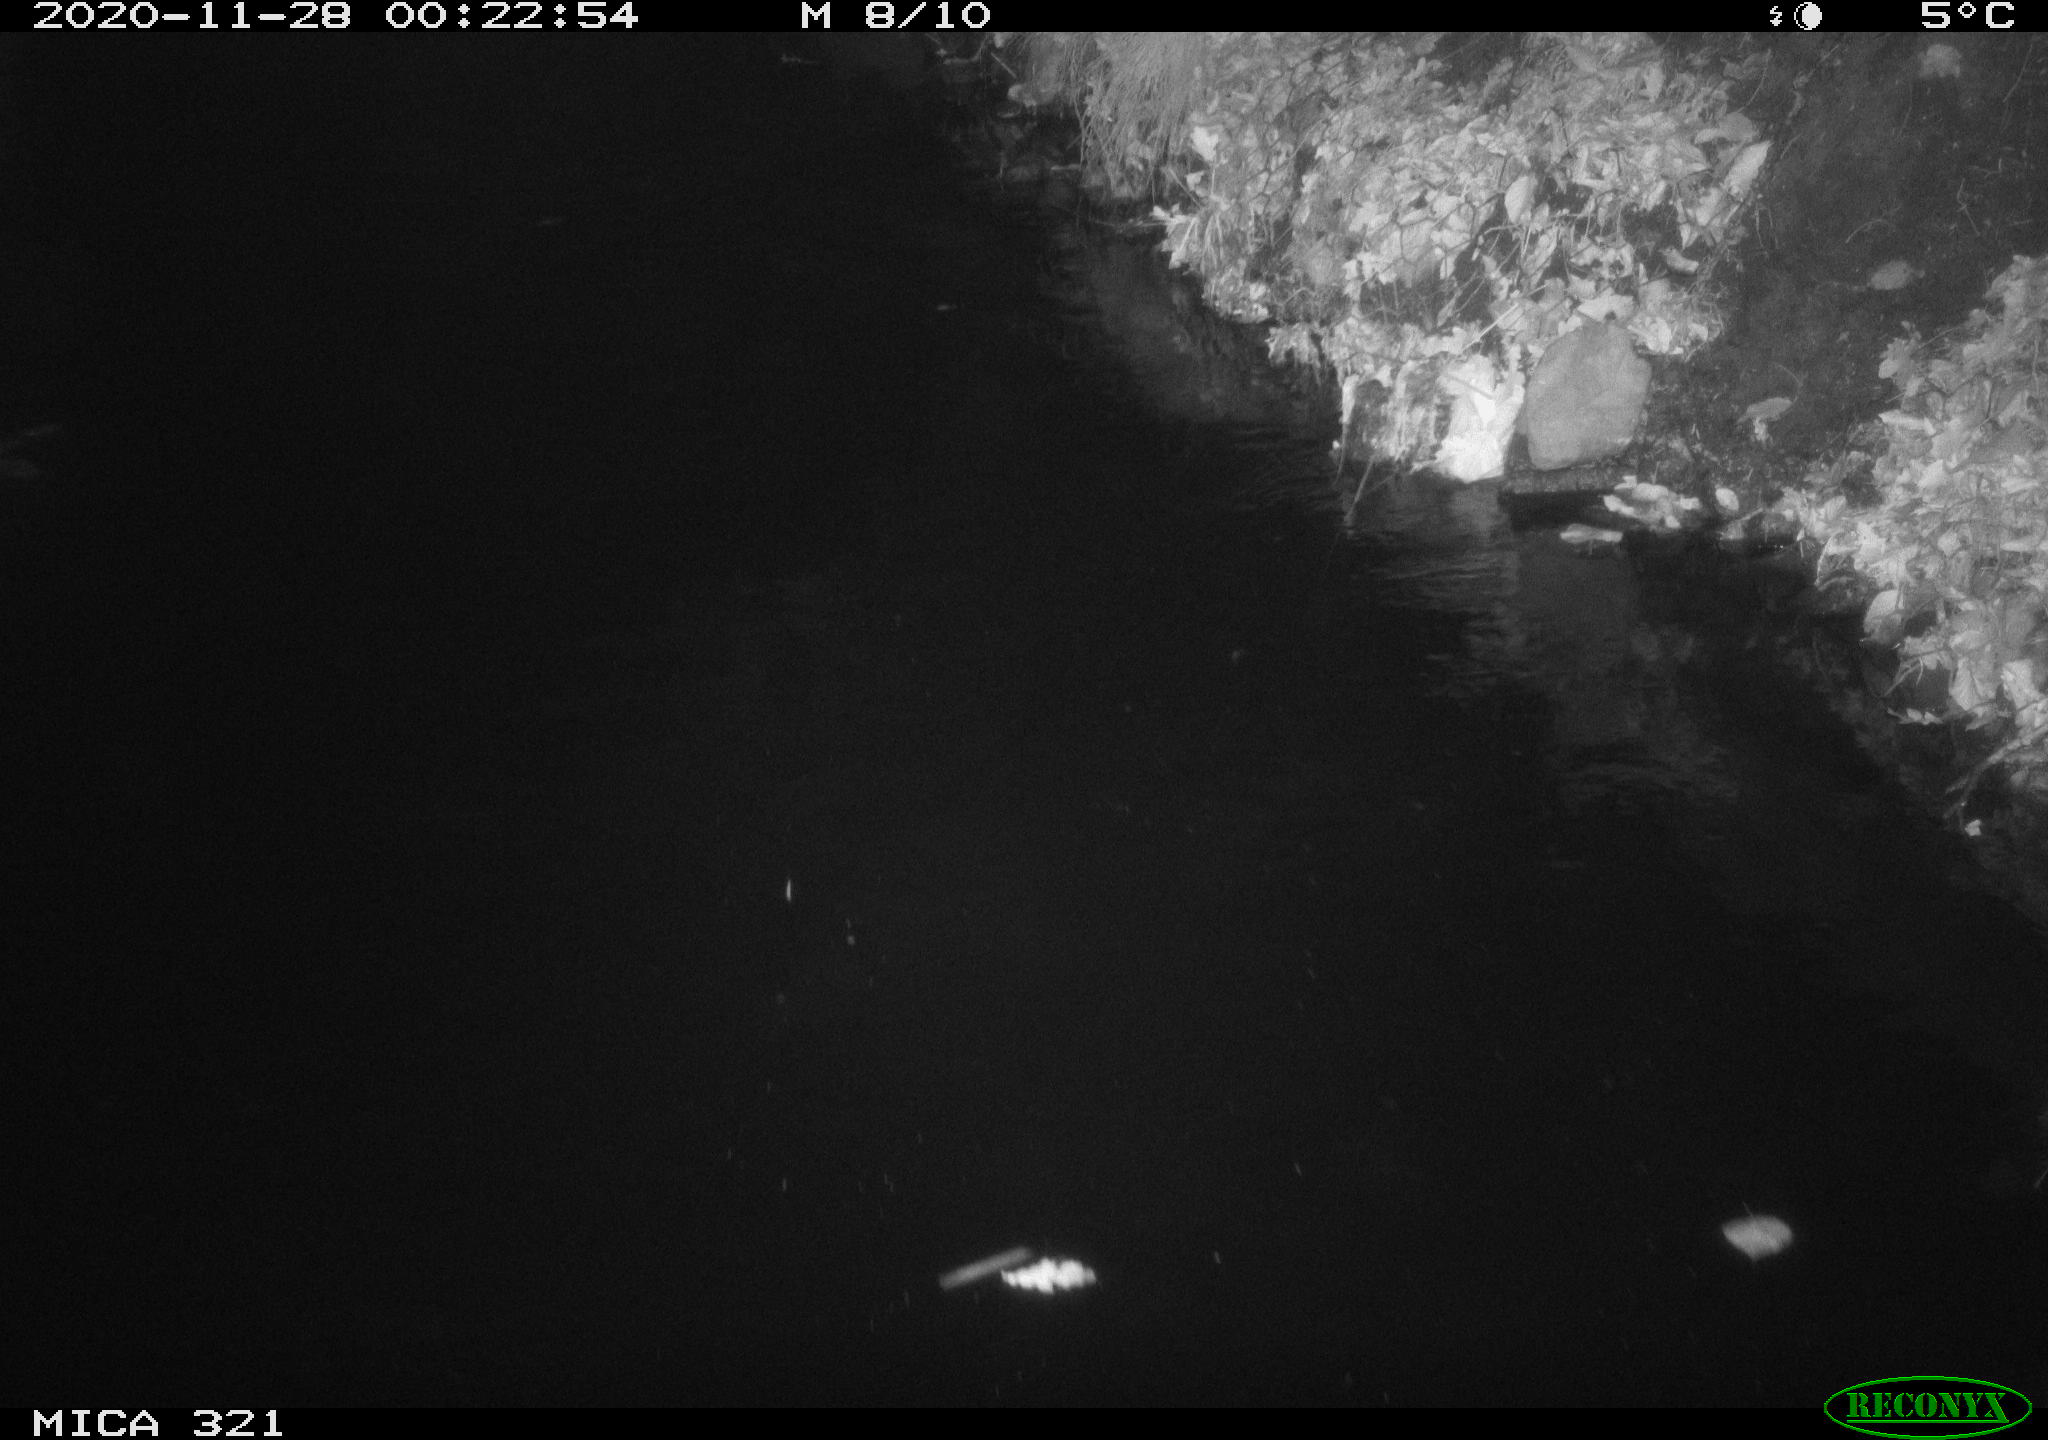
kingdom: Animalia
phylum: Chordata
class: Aves
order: Anseriformes
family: Anatidae
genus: Anas
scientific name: Anas platyrhynchos
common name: Mallard
